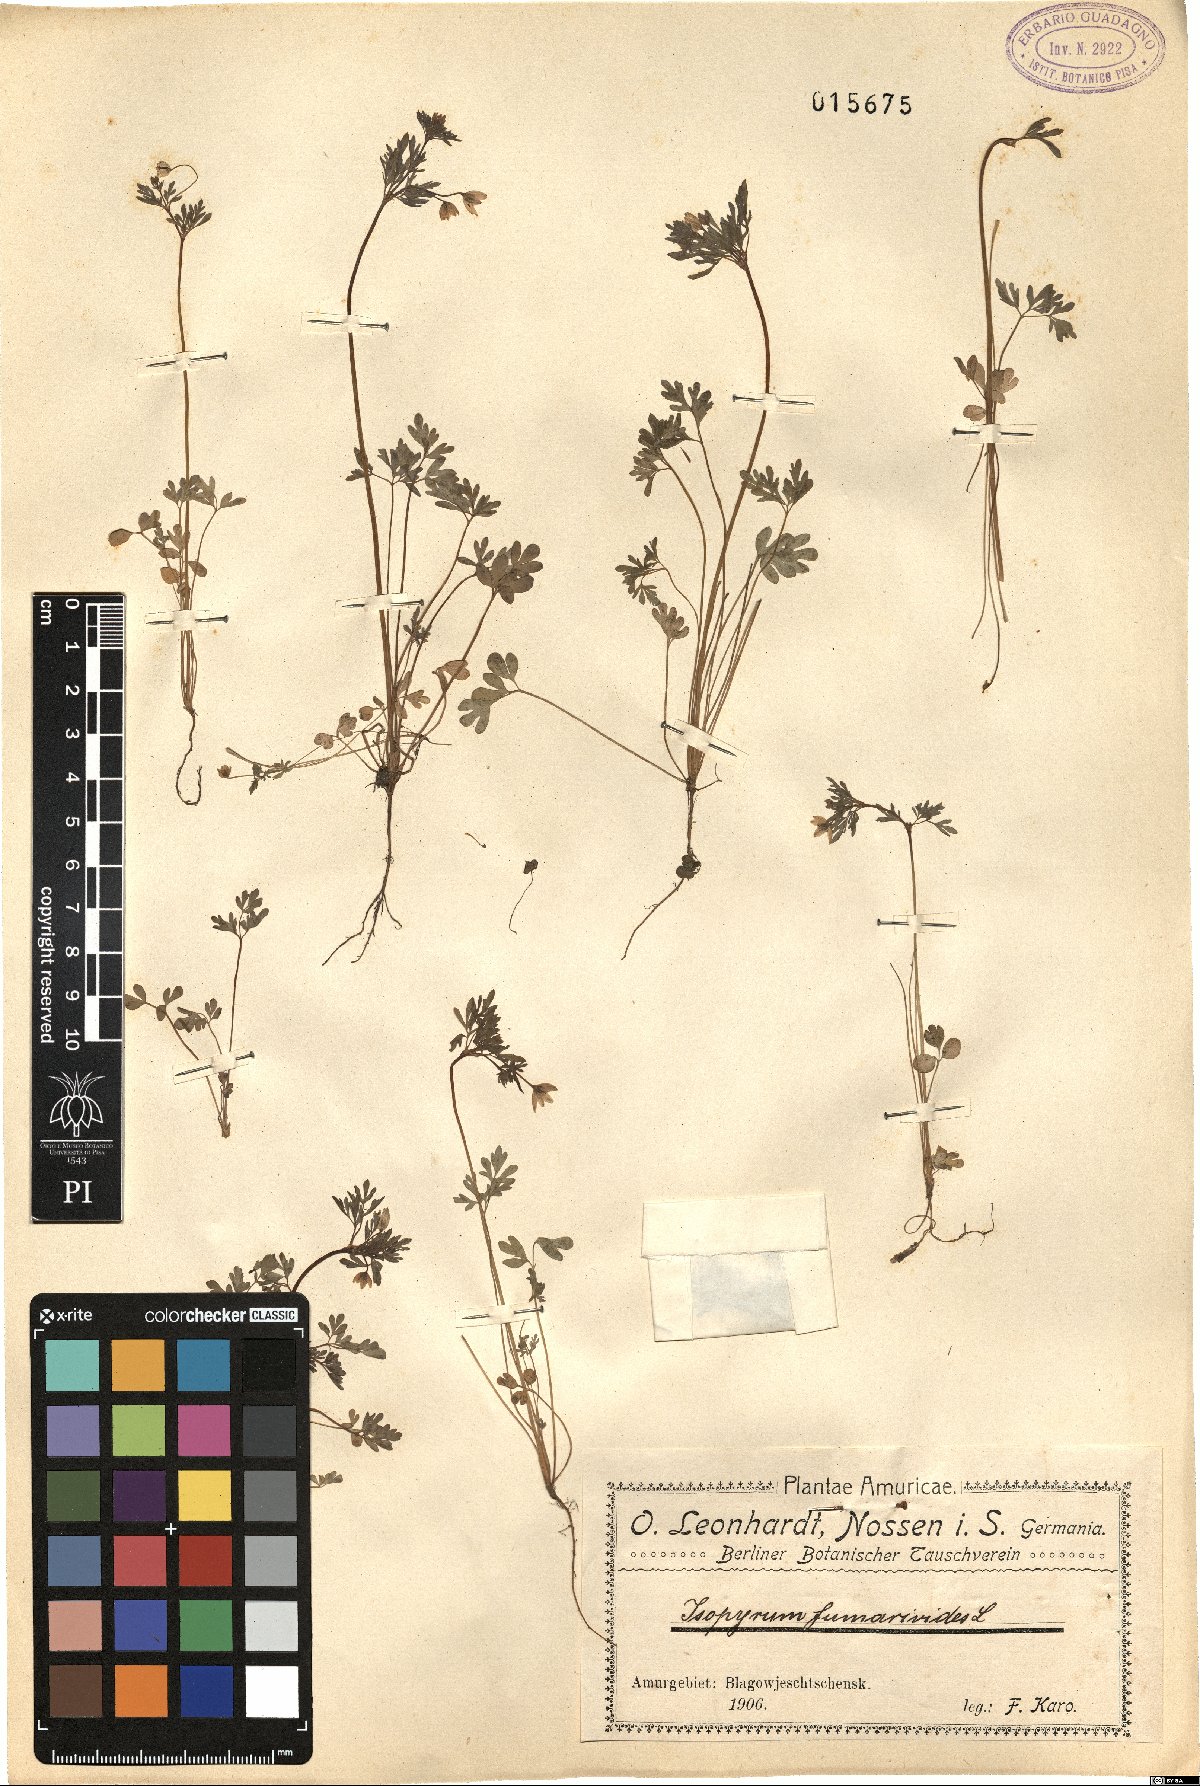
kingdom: Plantae
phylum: Tracheophyta
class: Magnoliopsida
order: Ranunculales
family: Ranunculaceae
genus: Leptopyrum
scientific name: Leptopyrum fumarioides
